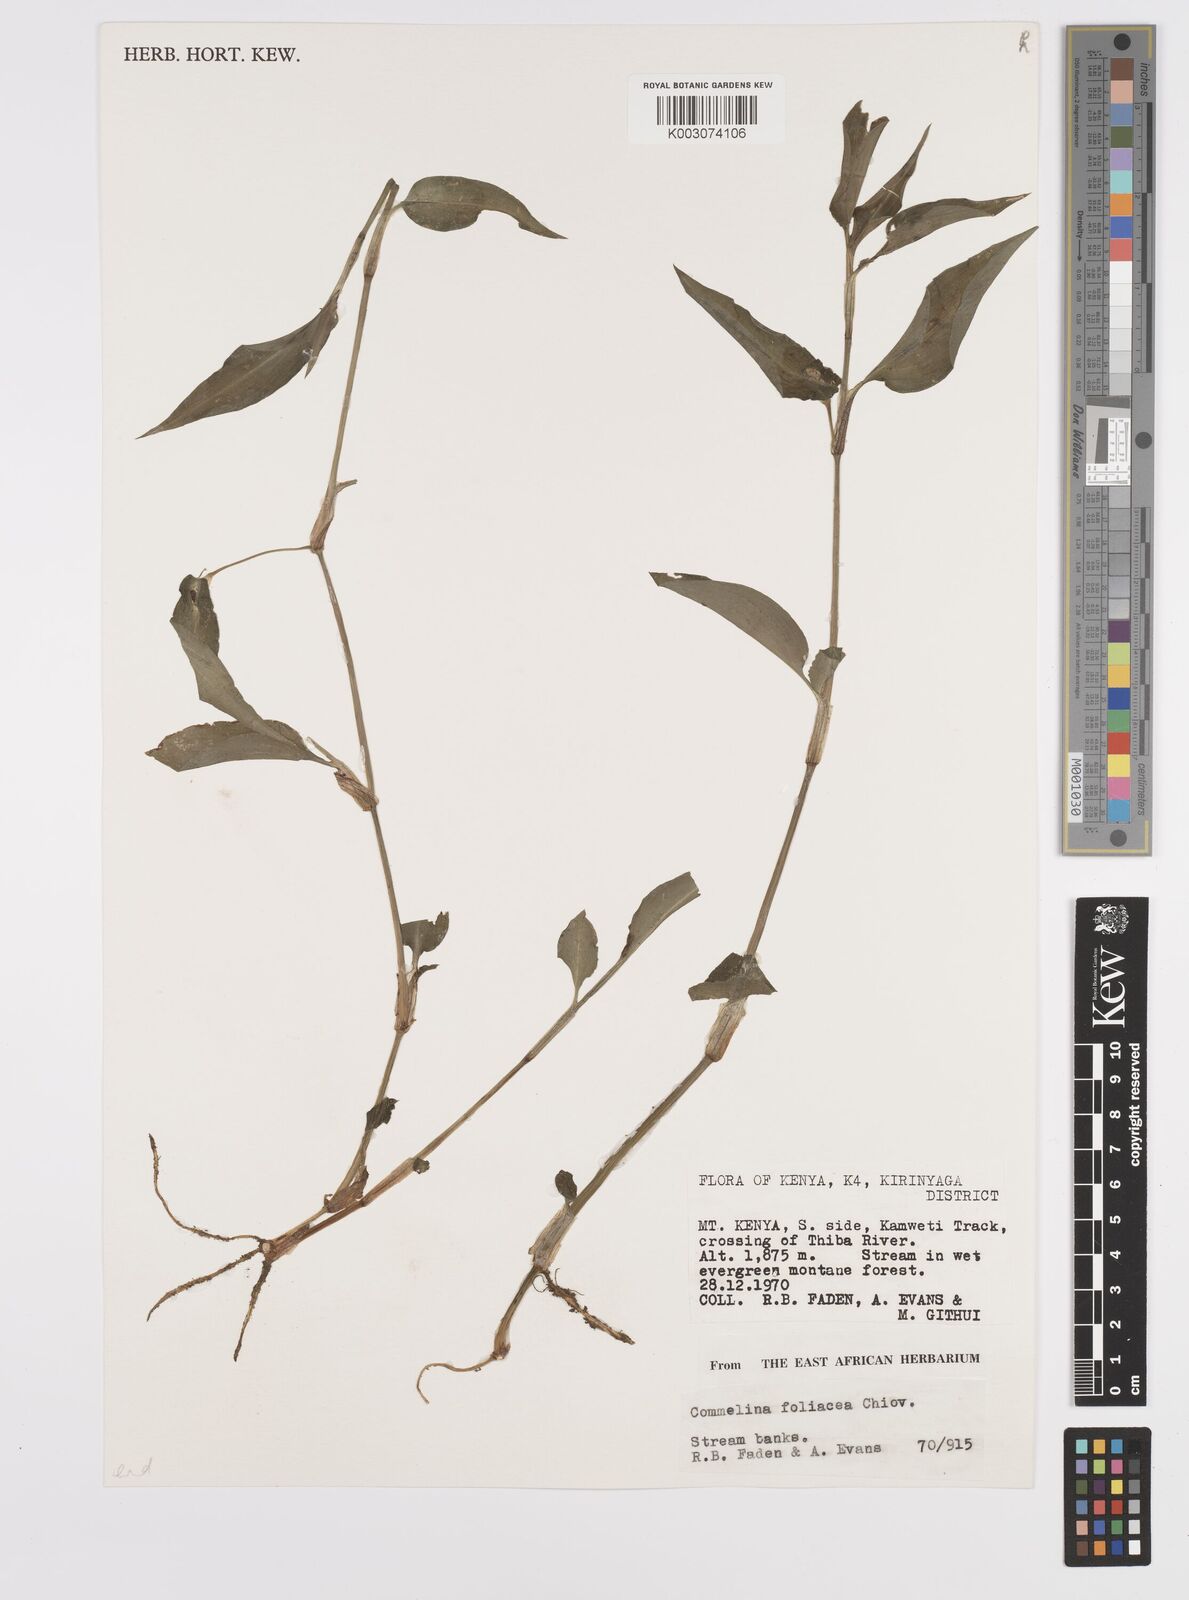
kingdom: Plantae
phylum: Tracheophyta
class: Liliopsida
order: Commelinales
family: Commelinaceae
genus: Commelina
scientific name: Commelina foliacea
